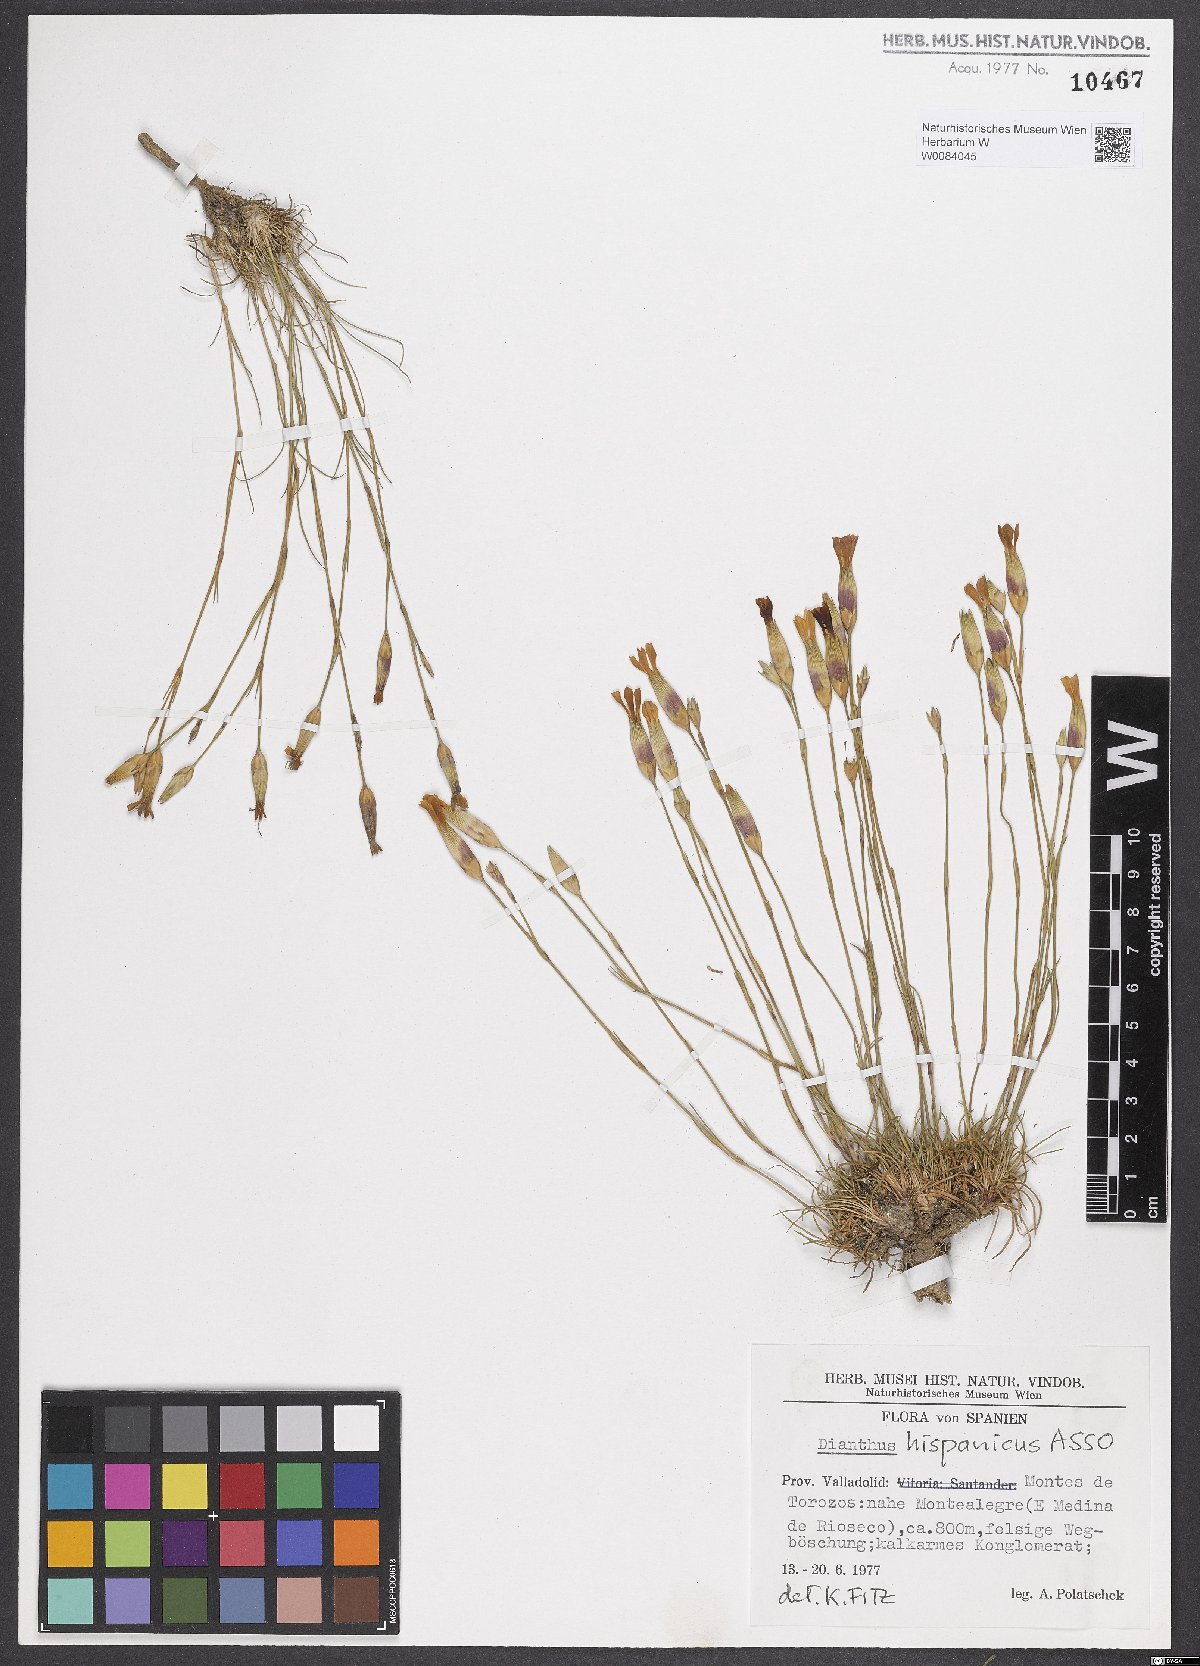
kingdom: Plantae
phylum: Tracheophyta
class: Magnoliopsida
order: Caryophyllales
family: Caryophyllaceae
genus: Dianthus
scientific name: Dianthus pungens
